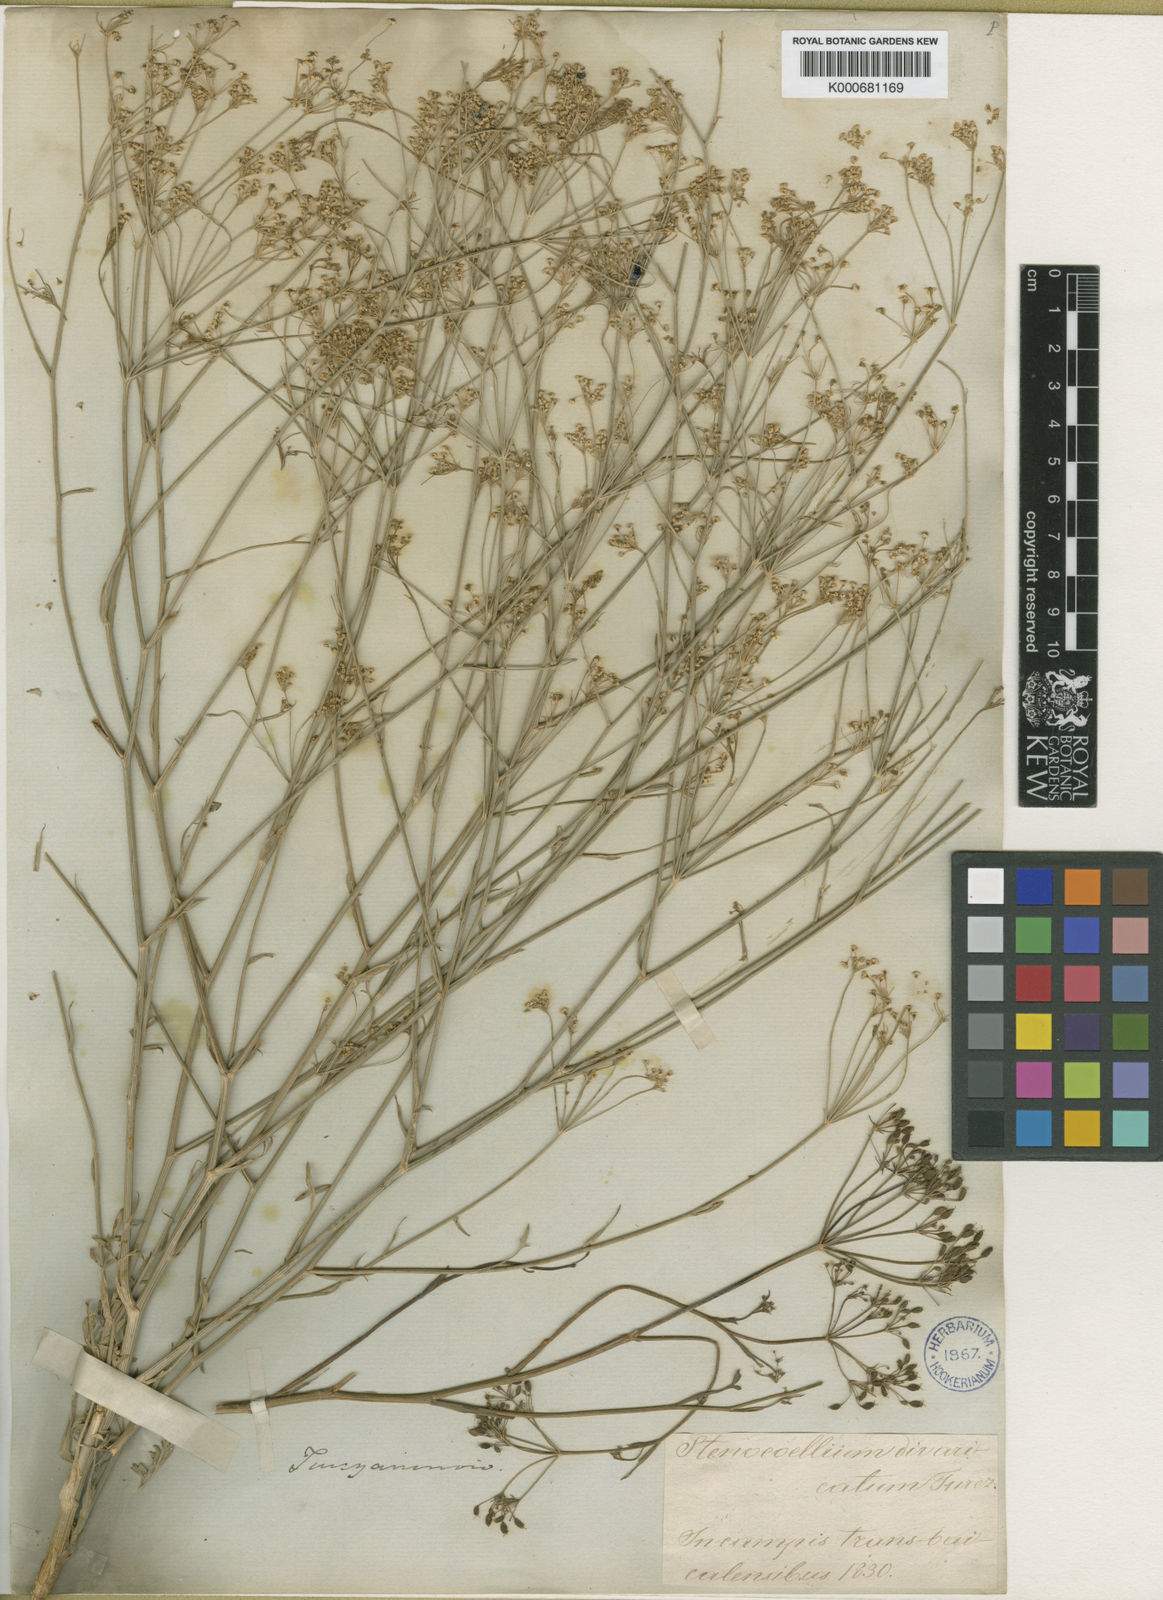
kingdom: Plantae
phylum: Tracheophyta
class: Magnoliopsida
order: Apiales
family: Apiaceae
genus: Saposhnikovia
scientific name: Saposhnikovia divaricata
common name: Siler
